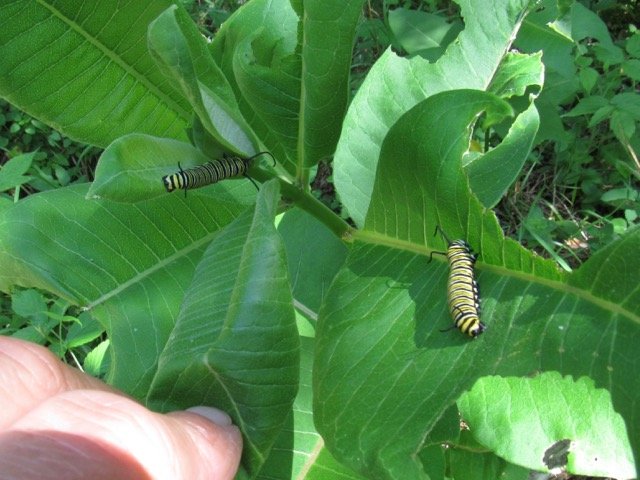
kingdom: Animalia
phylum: Arthropoda
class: Insecta
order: Lepidoptera
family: Nymphalidae
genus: Danaus
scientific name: Danaus plexippus
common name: Monarch
